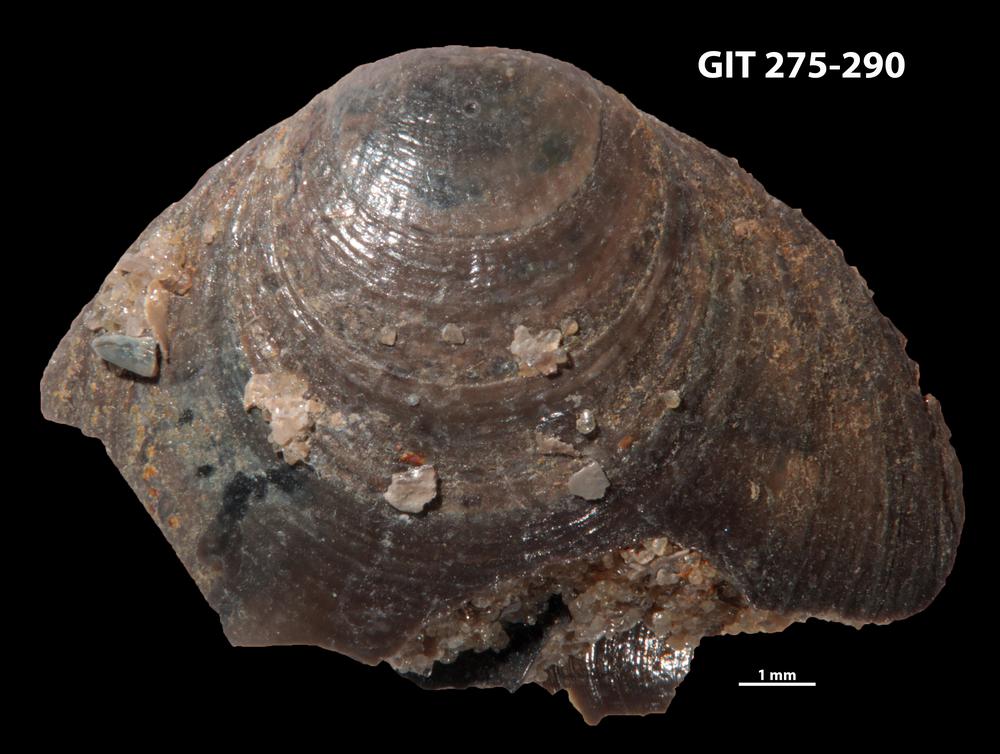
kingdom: Animalia
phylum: Brachiopoda
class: Lingulata
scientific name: Lingulata
